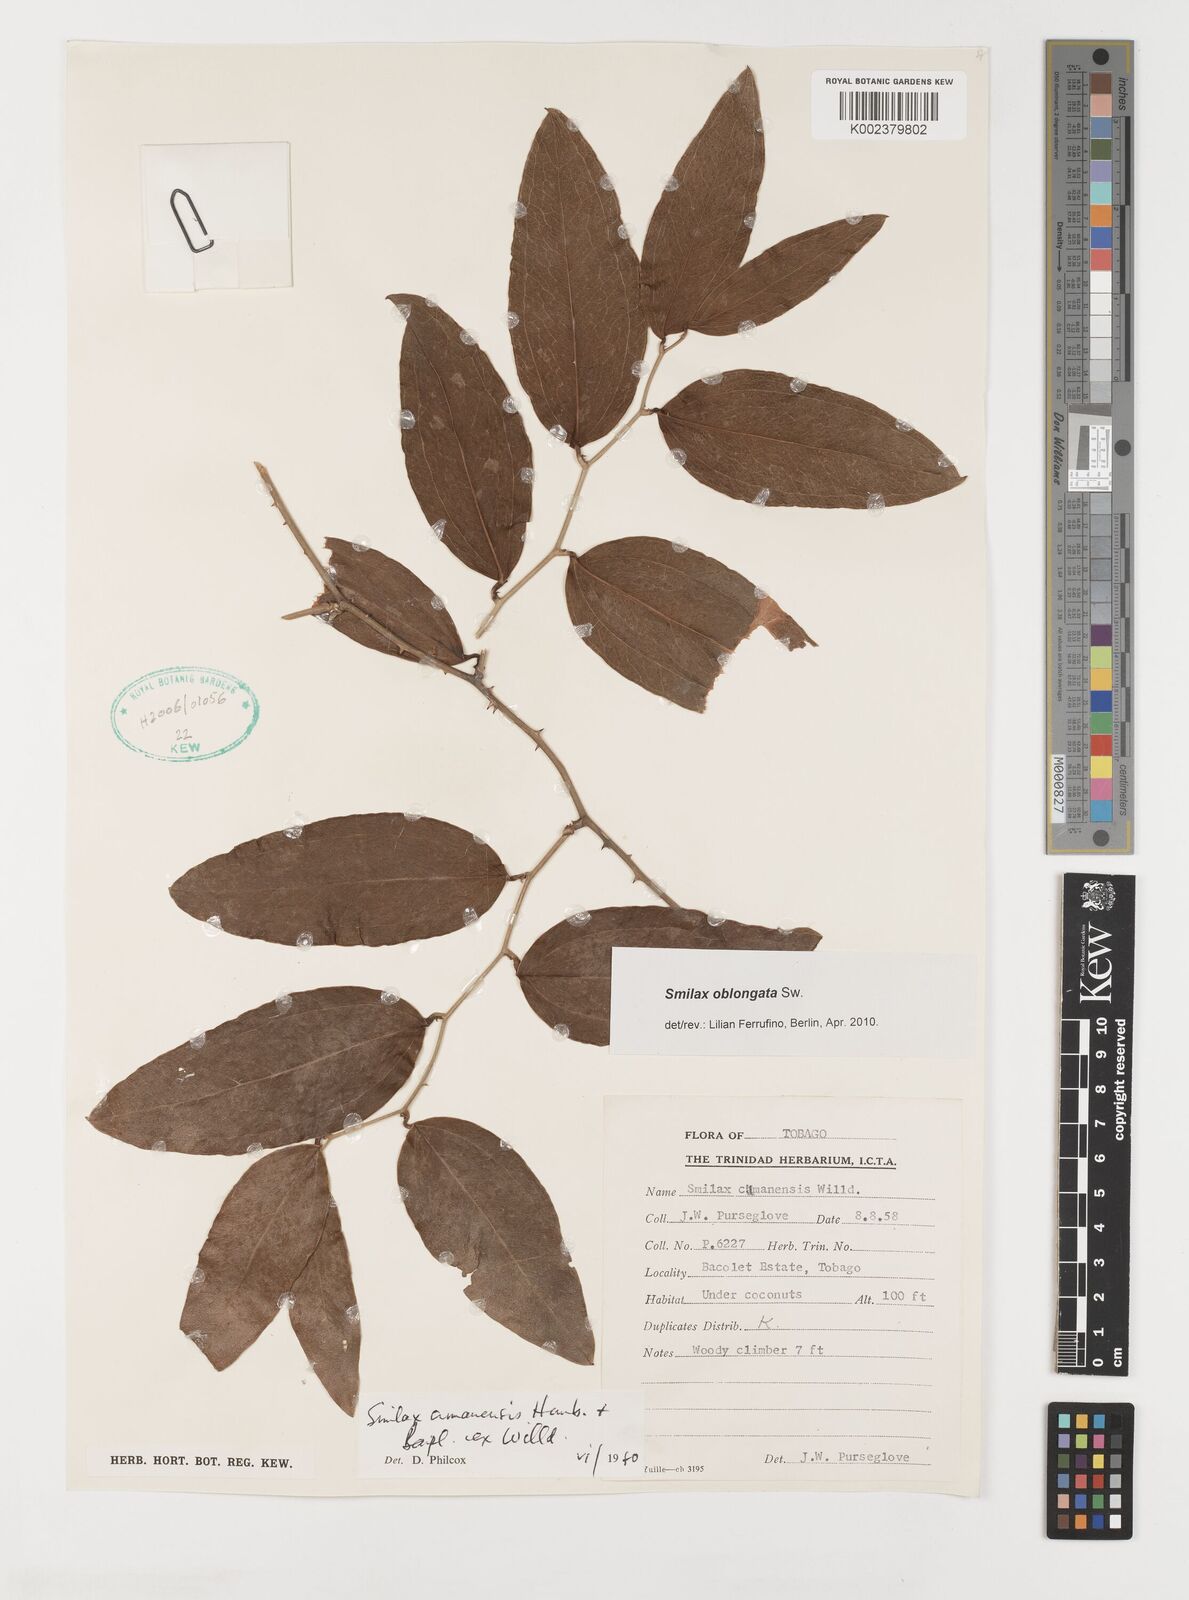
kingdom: Plantae
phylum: Tracheophyta
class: Liliopsida
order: Liliales
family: Smilacaceae
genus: Smilax
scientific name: Smilax oblongata
